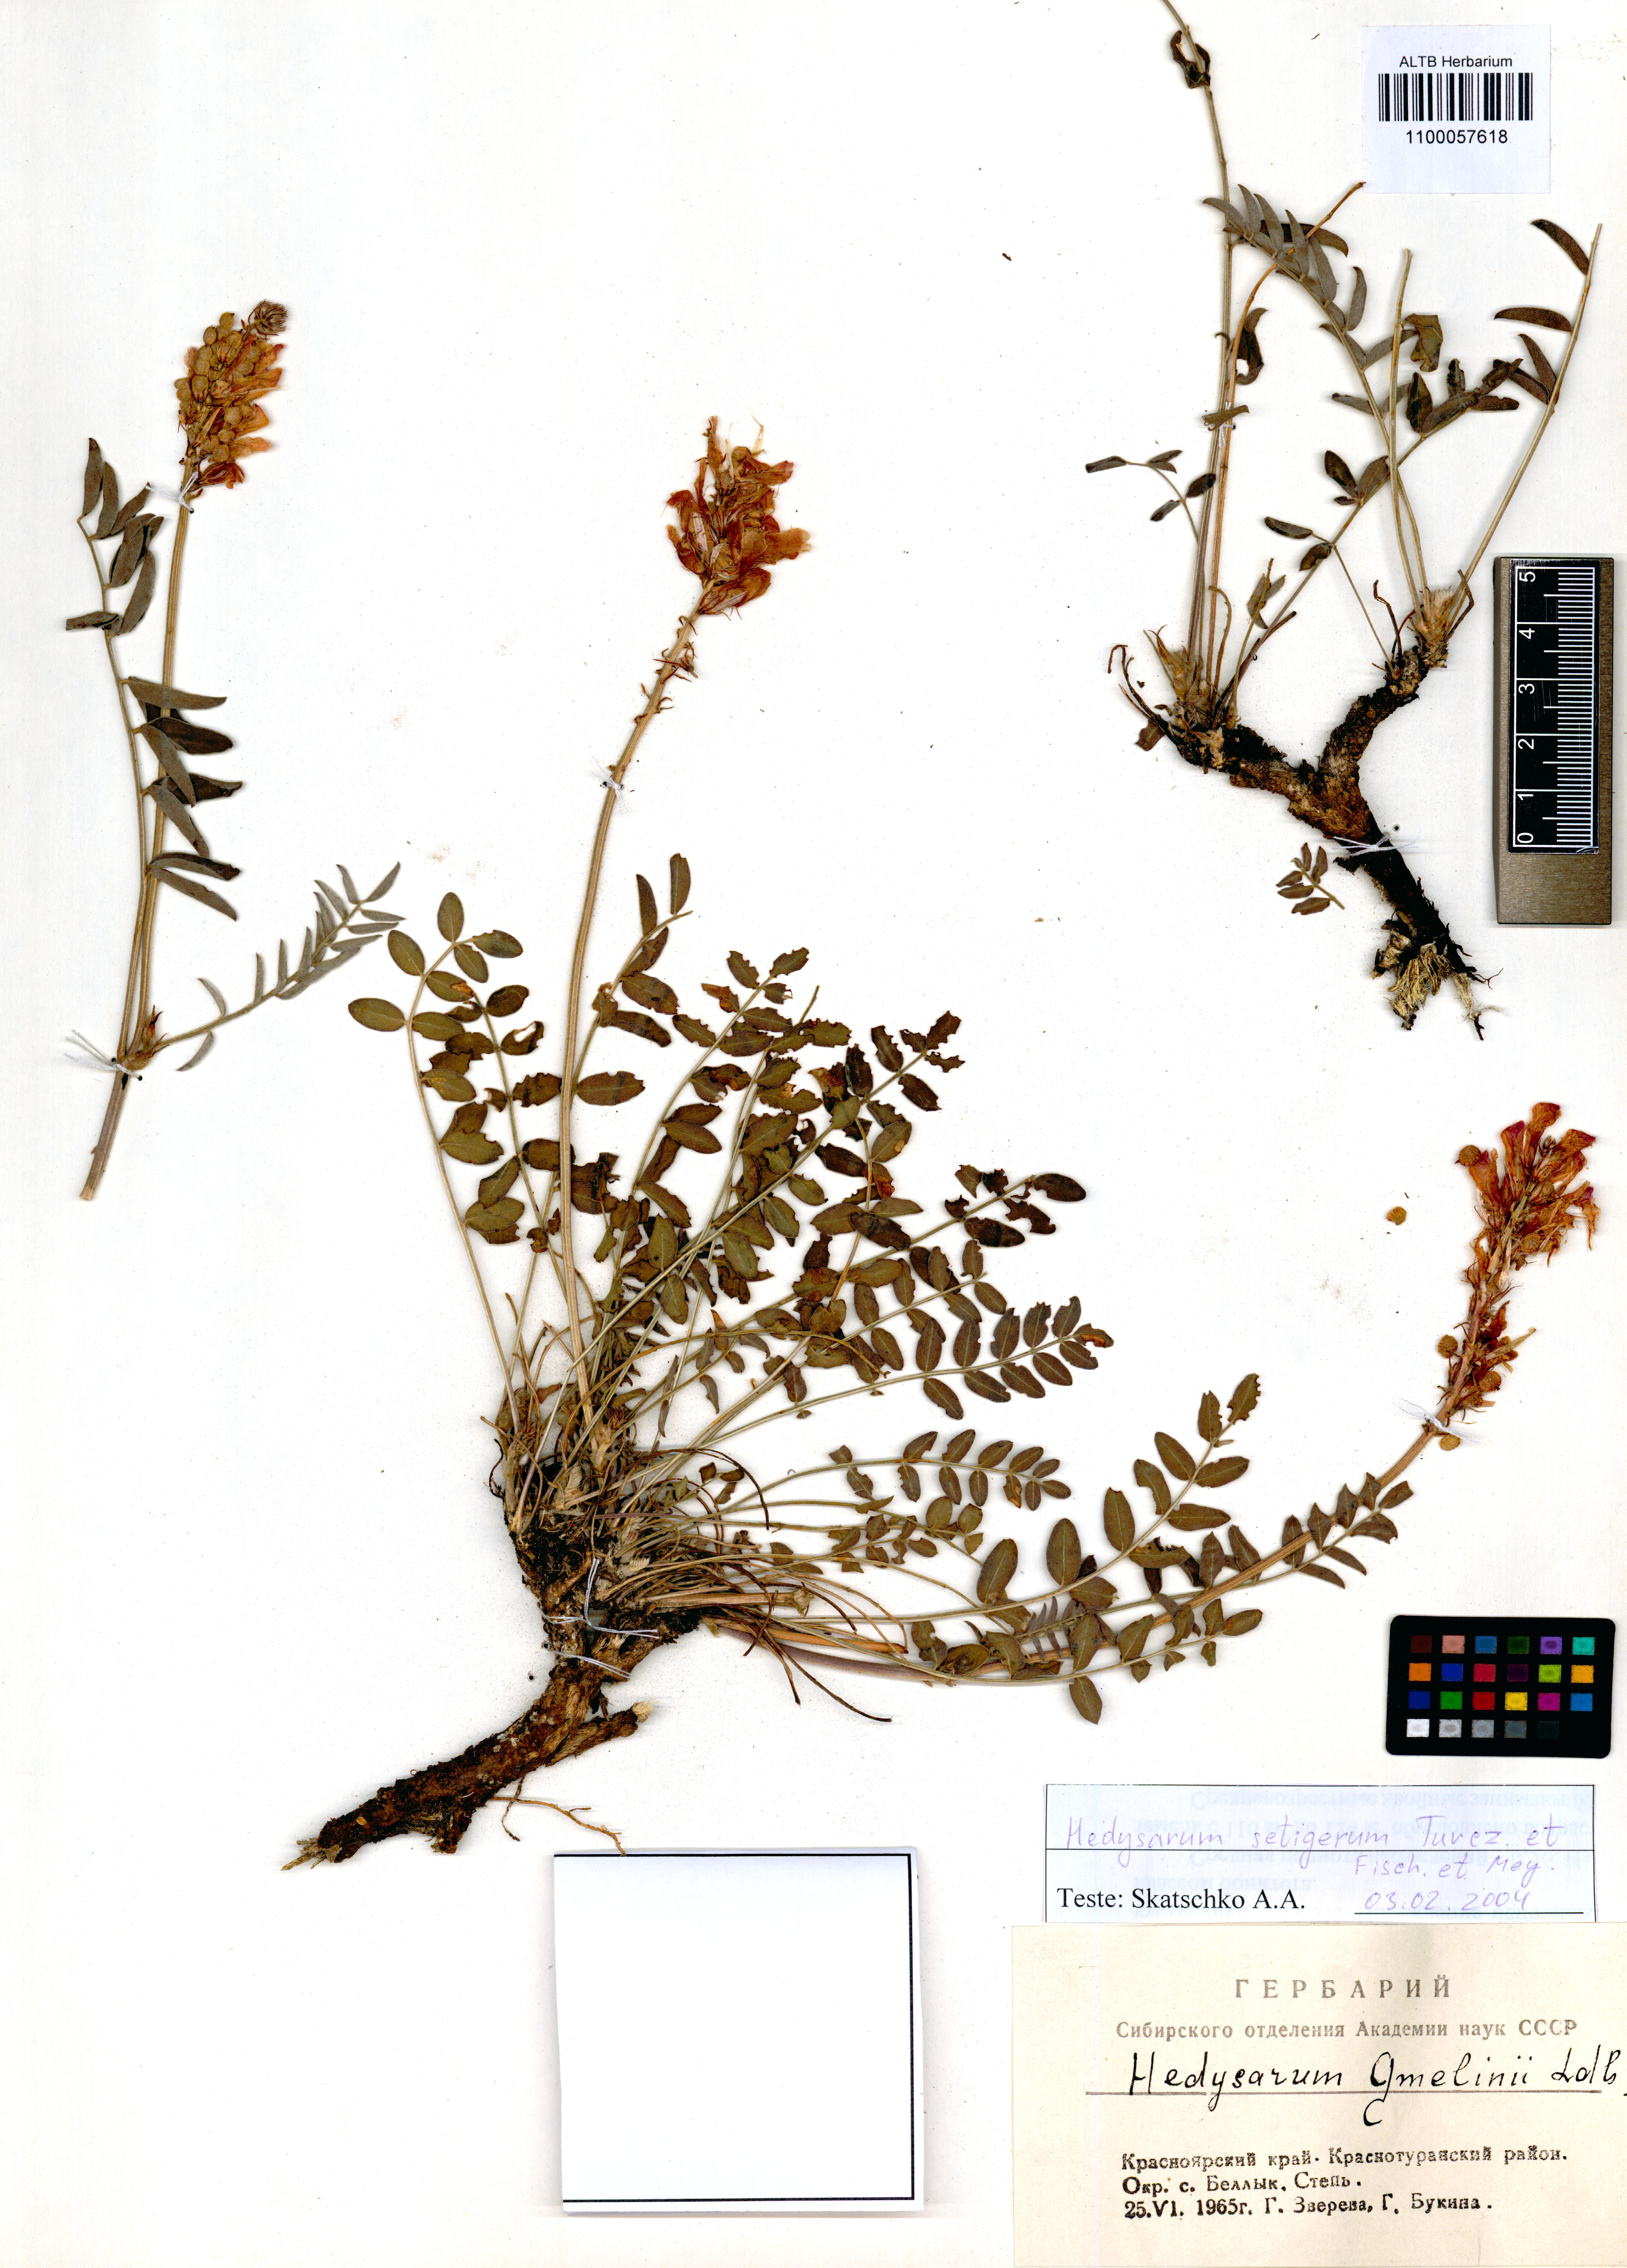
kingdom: Plantae
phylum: Tracheophyta
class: Magnoliopsida
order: Fabales
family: Fabaceae
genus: Hedysarum
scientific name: Hedysarum setigerum
